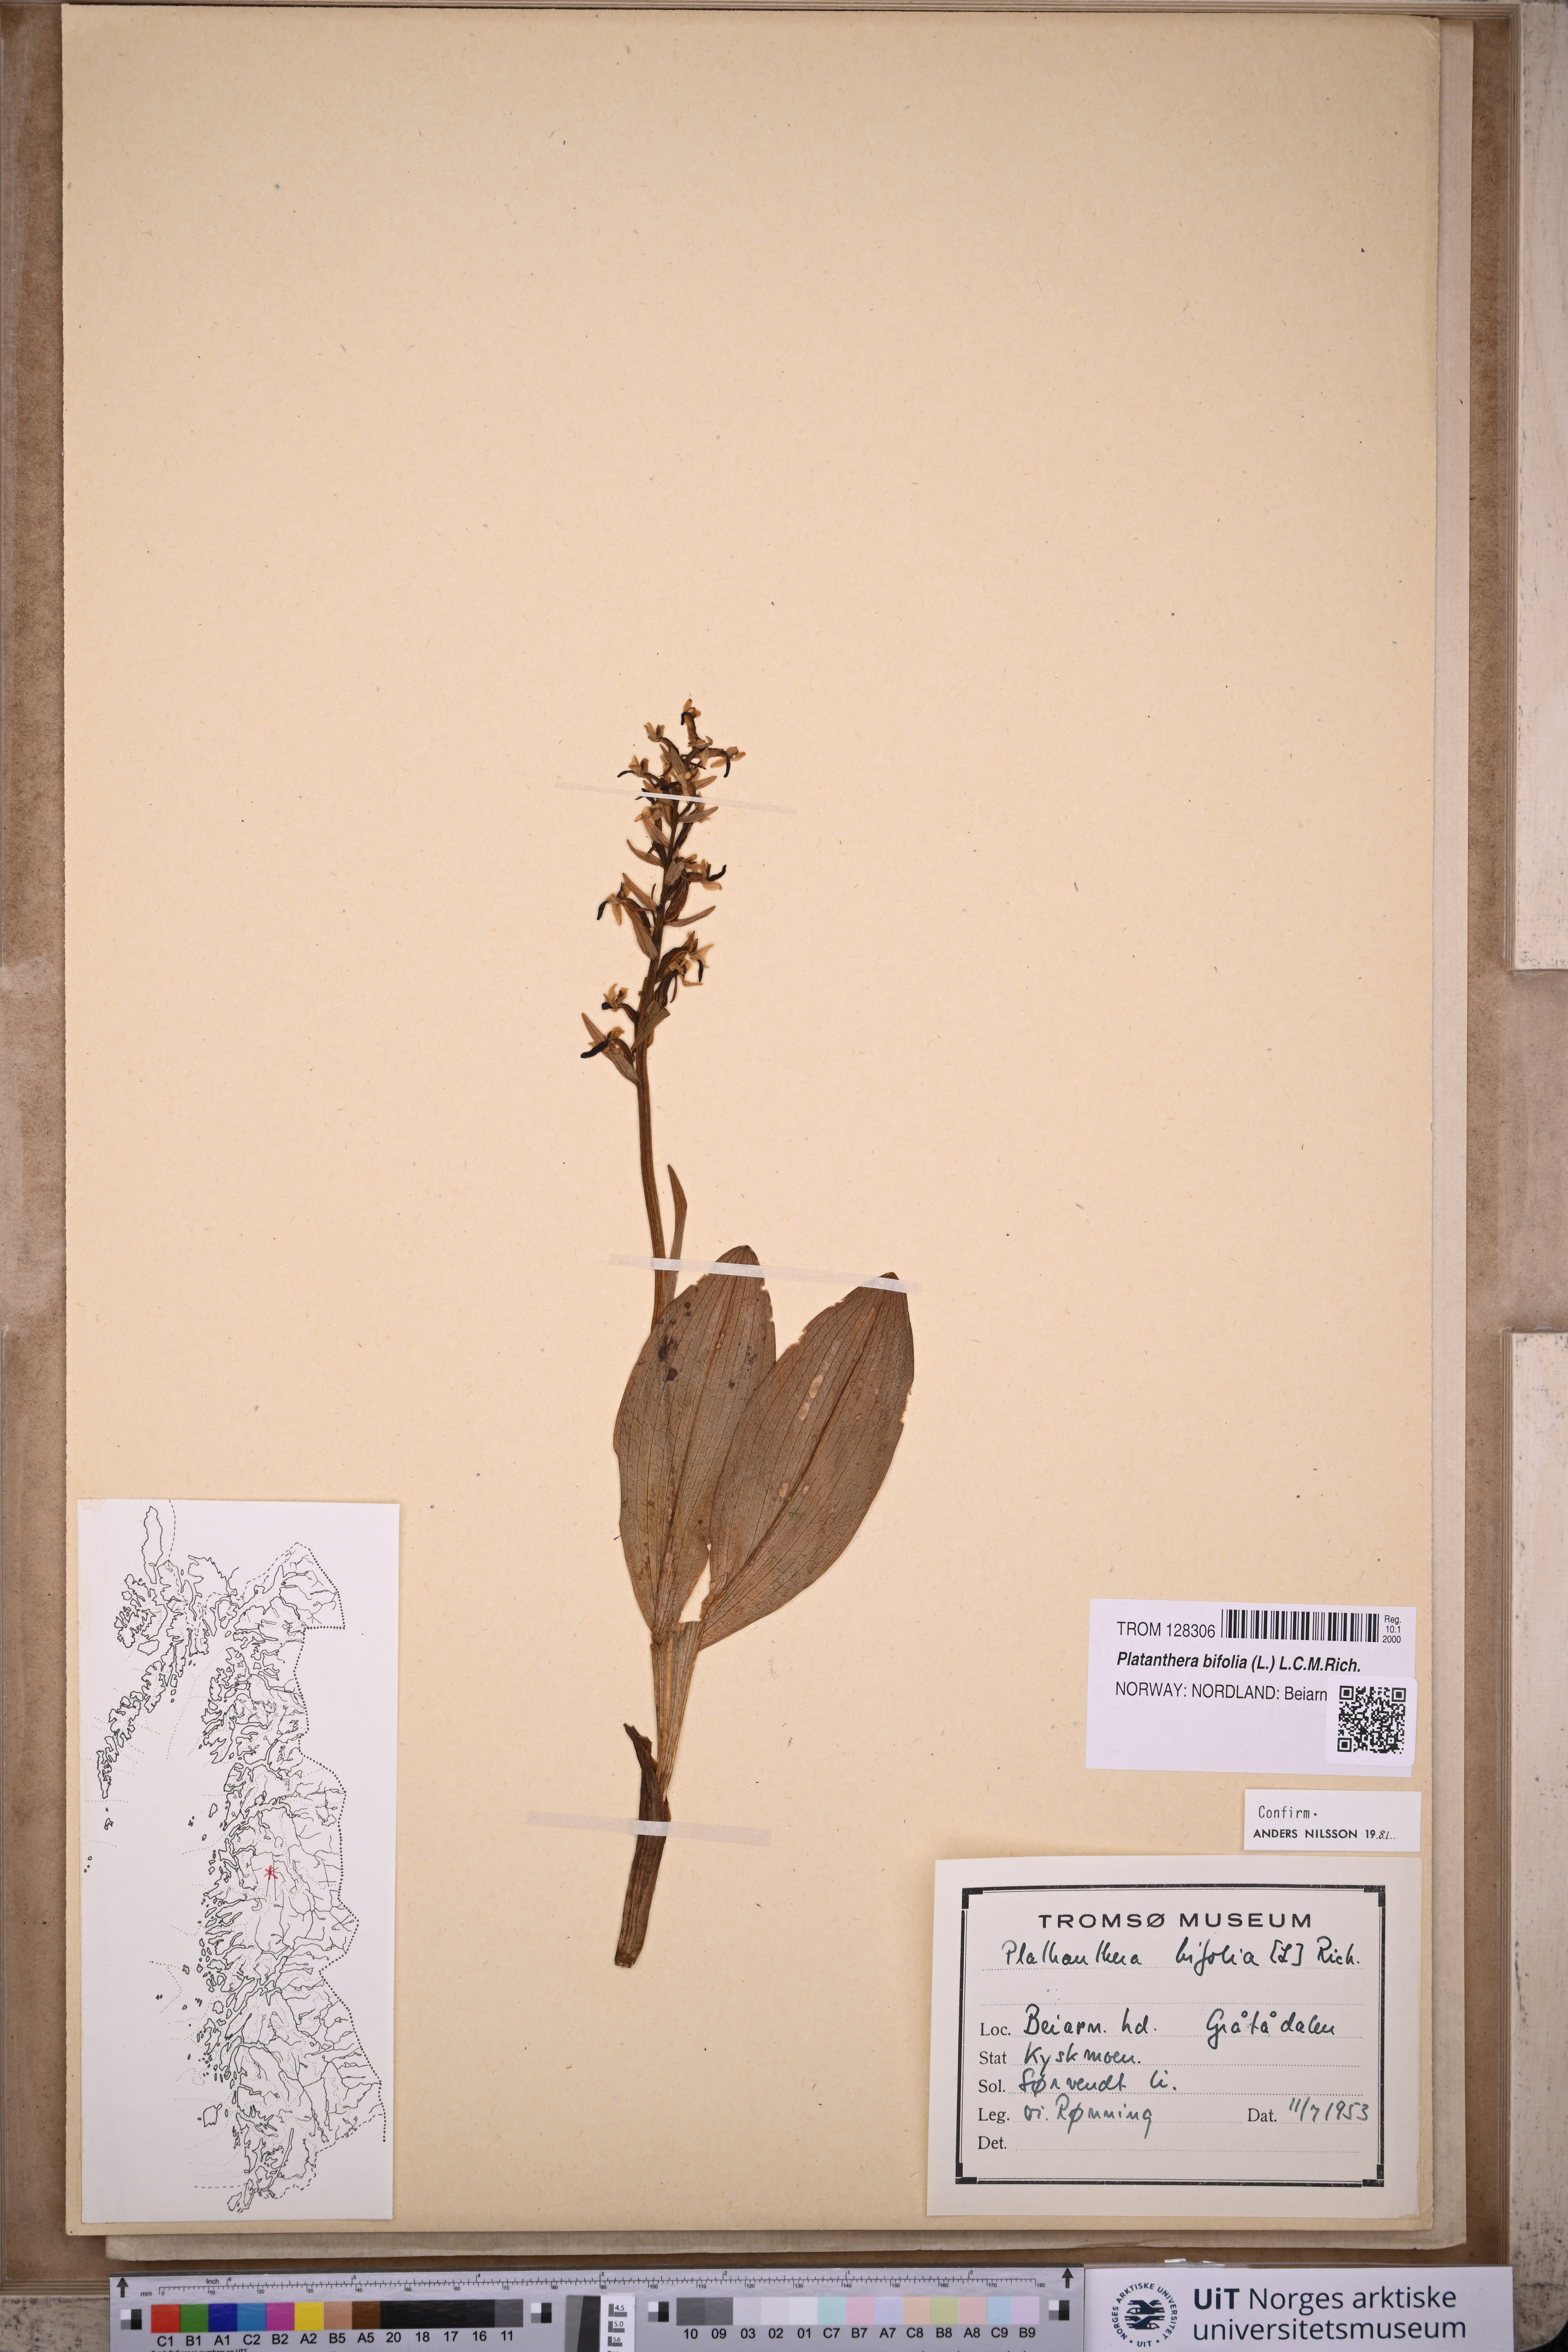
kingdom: Plantae
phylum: Tracheophyta
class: Liliopsida
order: Asparagales
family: Orchidaceae
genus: Platanthera
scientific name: Platanthera bifolia
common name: Lesser butterfly-orchid
